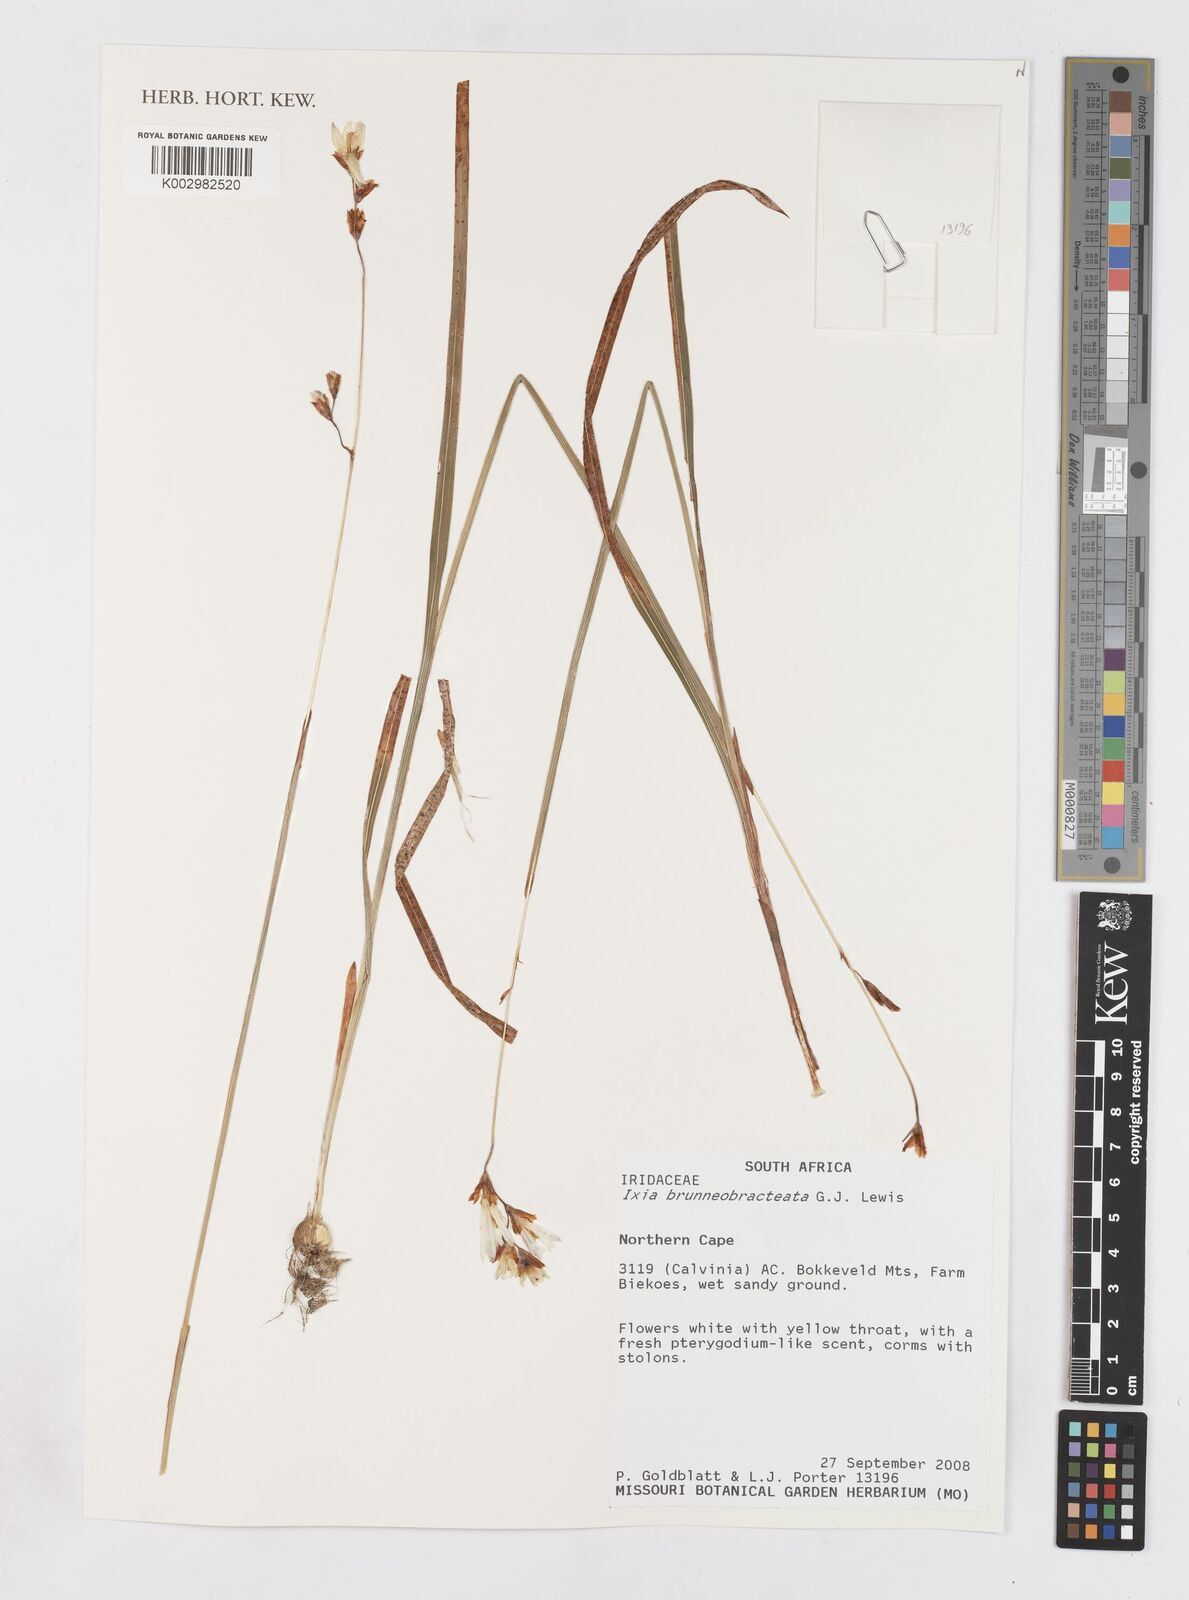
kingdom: Plantae
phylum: Tracheophyta
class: Liliopsida
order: Asparagales
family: Iridaceae
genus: Ixia
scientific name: Ixia brunneobractea
